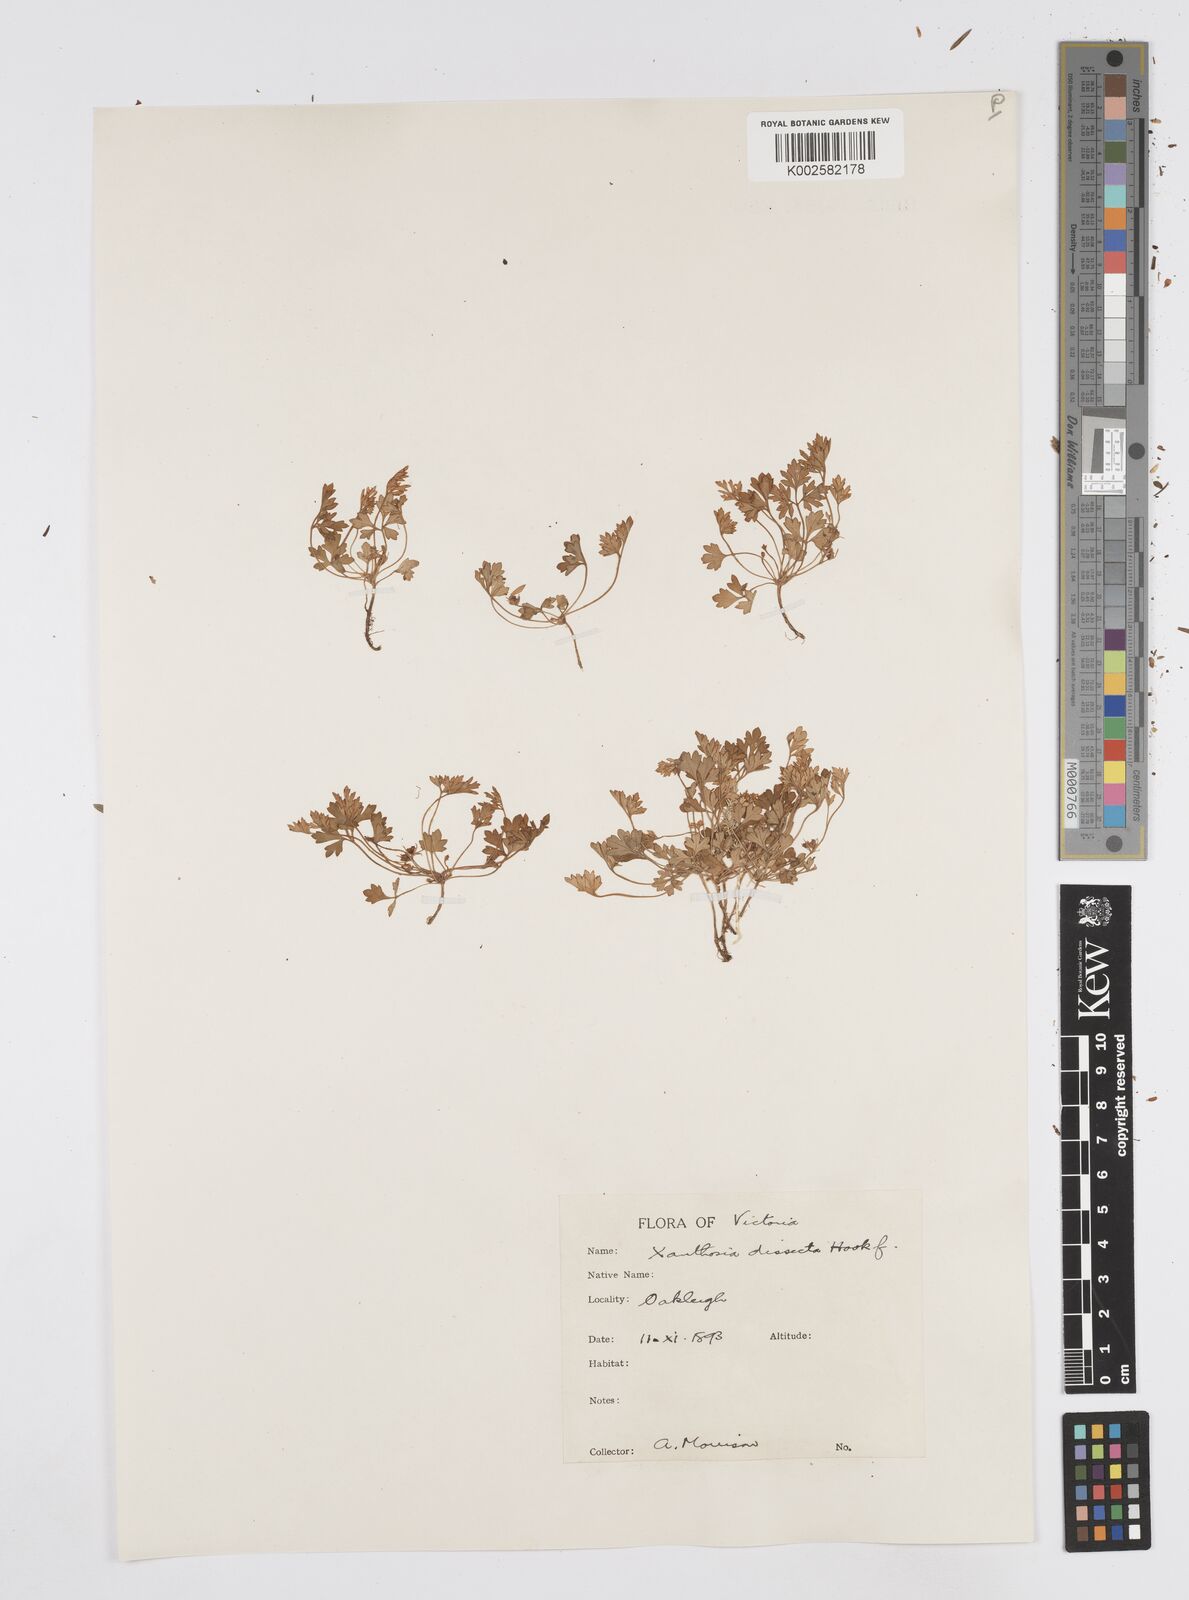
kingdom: Plantae
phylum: Tracheophyta
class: Magnoliopsida
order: Apiales
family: Apiaceae
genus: Xanthosia
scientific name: Xanthosia dissecta
